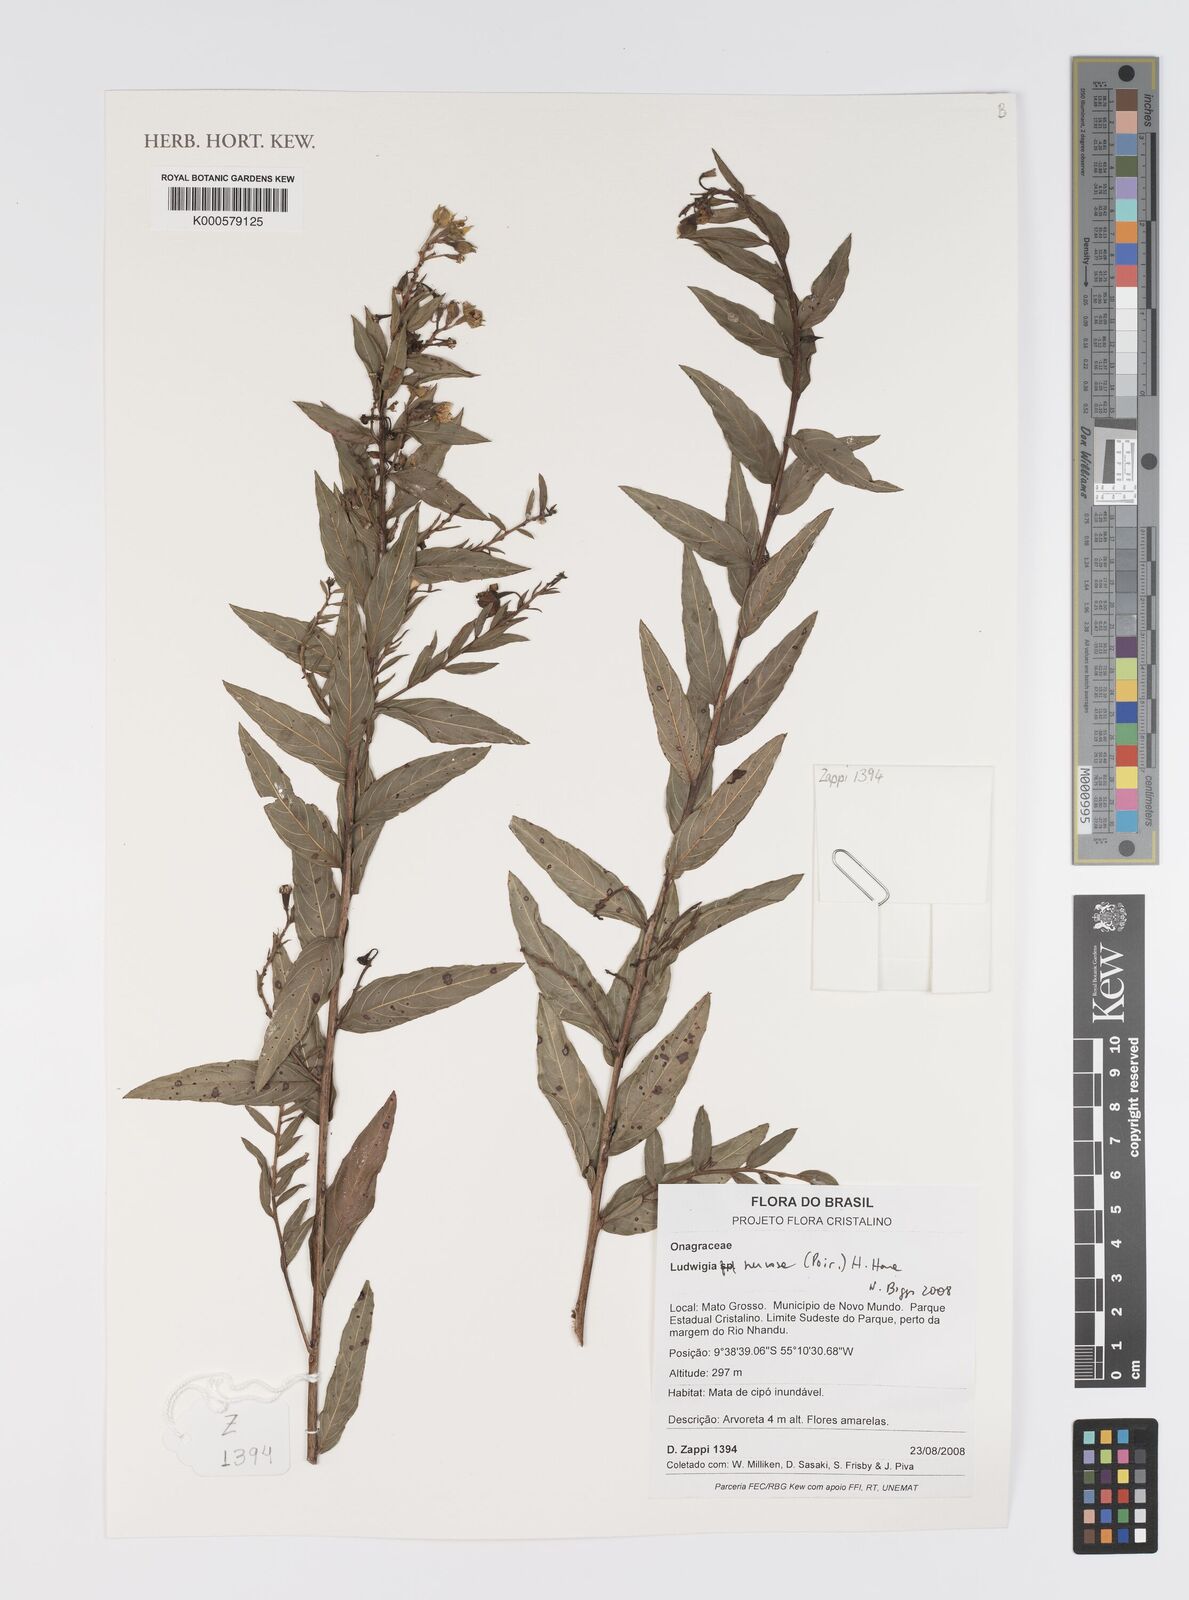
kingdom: Plantae
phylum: Tracheophyta
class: Magnoliopsida
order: Myrtales
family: Onagraceae
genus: Ludwigia
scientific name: Ludwigia nervosa
